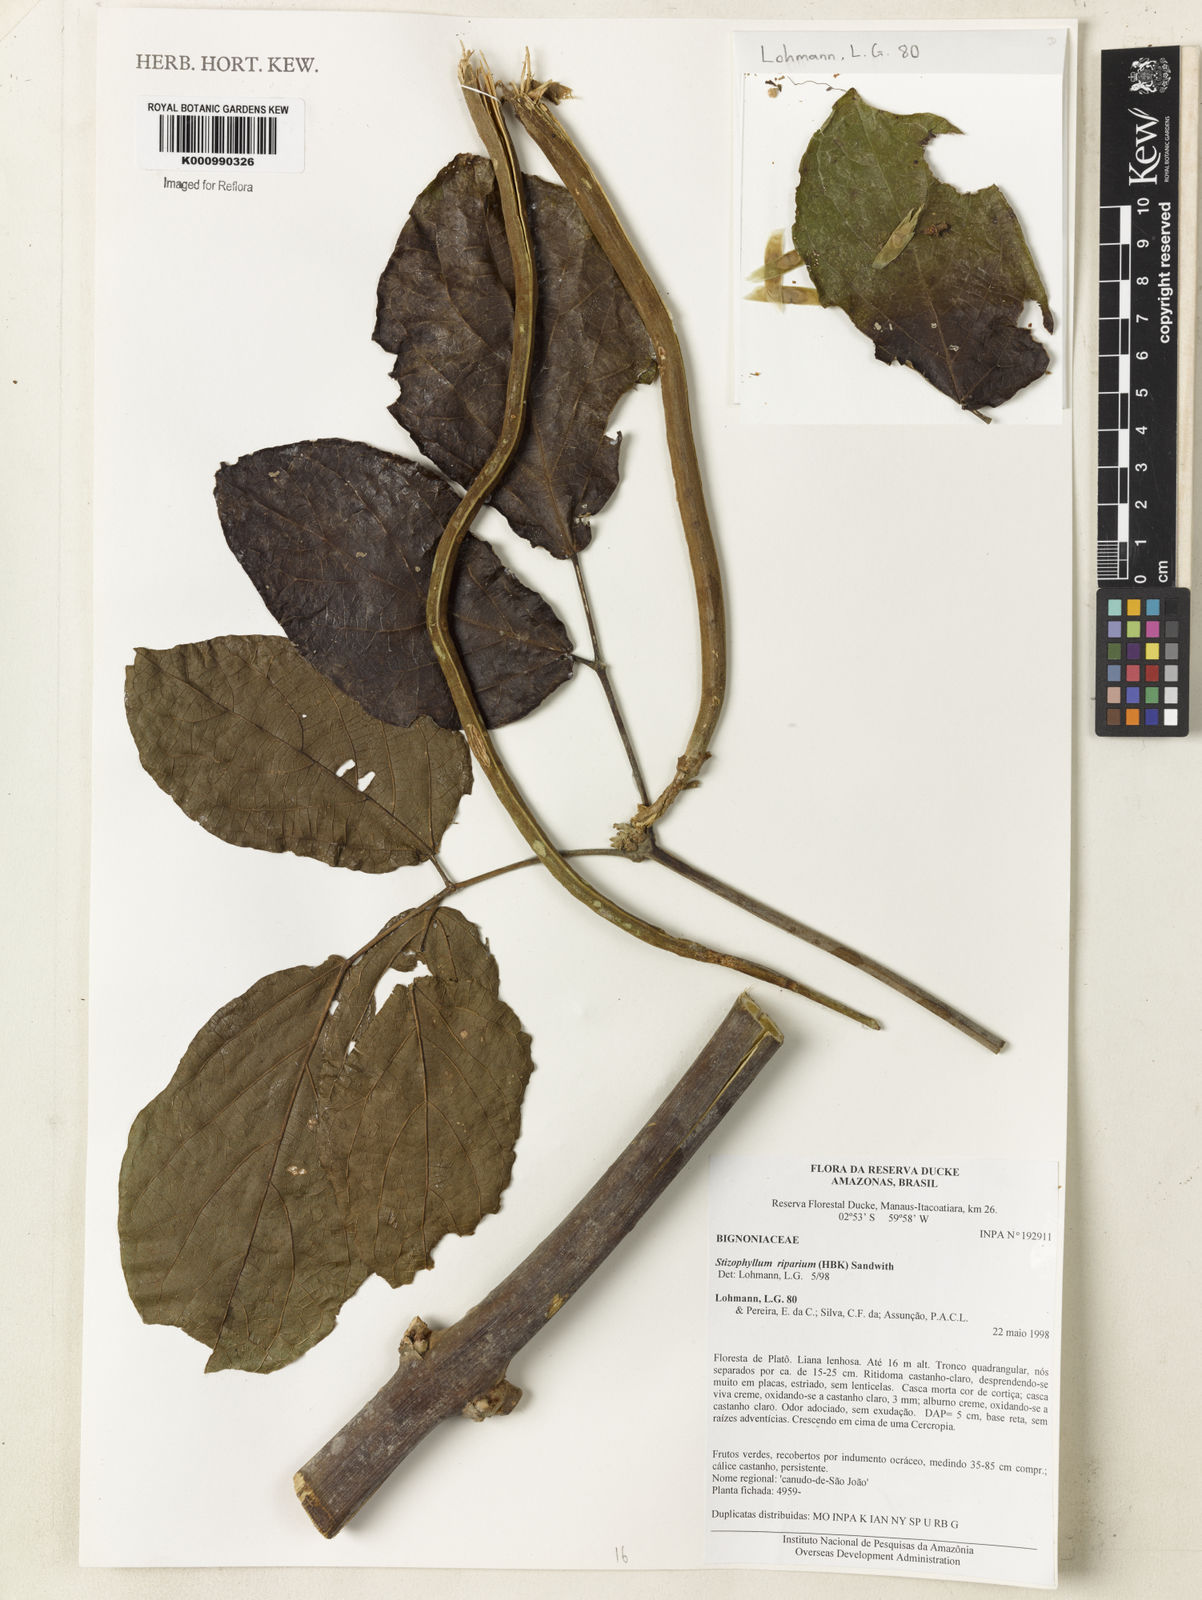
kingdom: Plantae
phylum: Tracheophyta
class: Magnoliopsida
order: Lamiales
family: Bignoniaceae
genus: Stizophyllum
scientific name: Stizophyllum riparium
